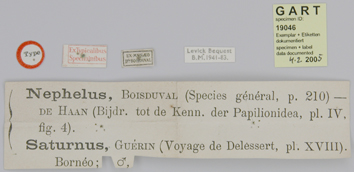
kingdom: Animalia
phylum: Arthropoda
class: Insecta
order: Lepidoptera
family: Papilionidae
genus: Papilio
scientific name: Papilio nephelus
